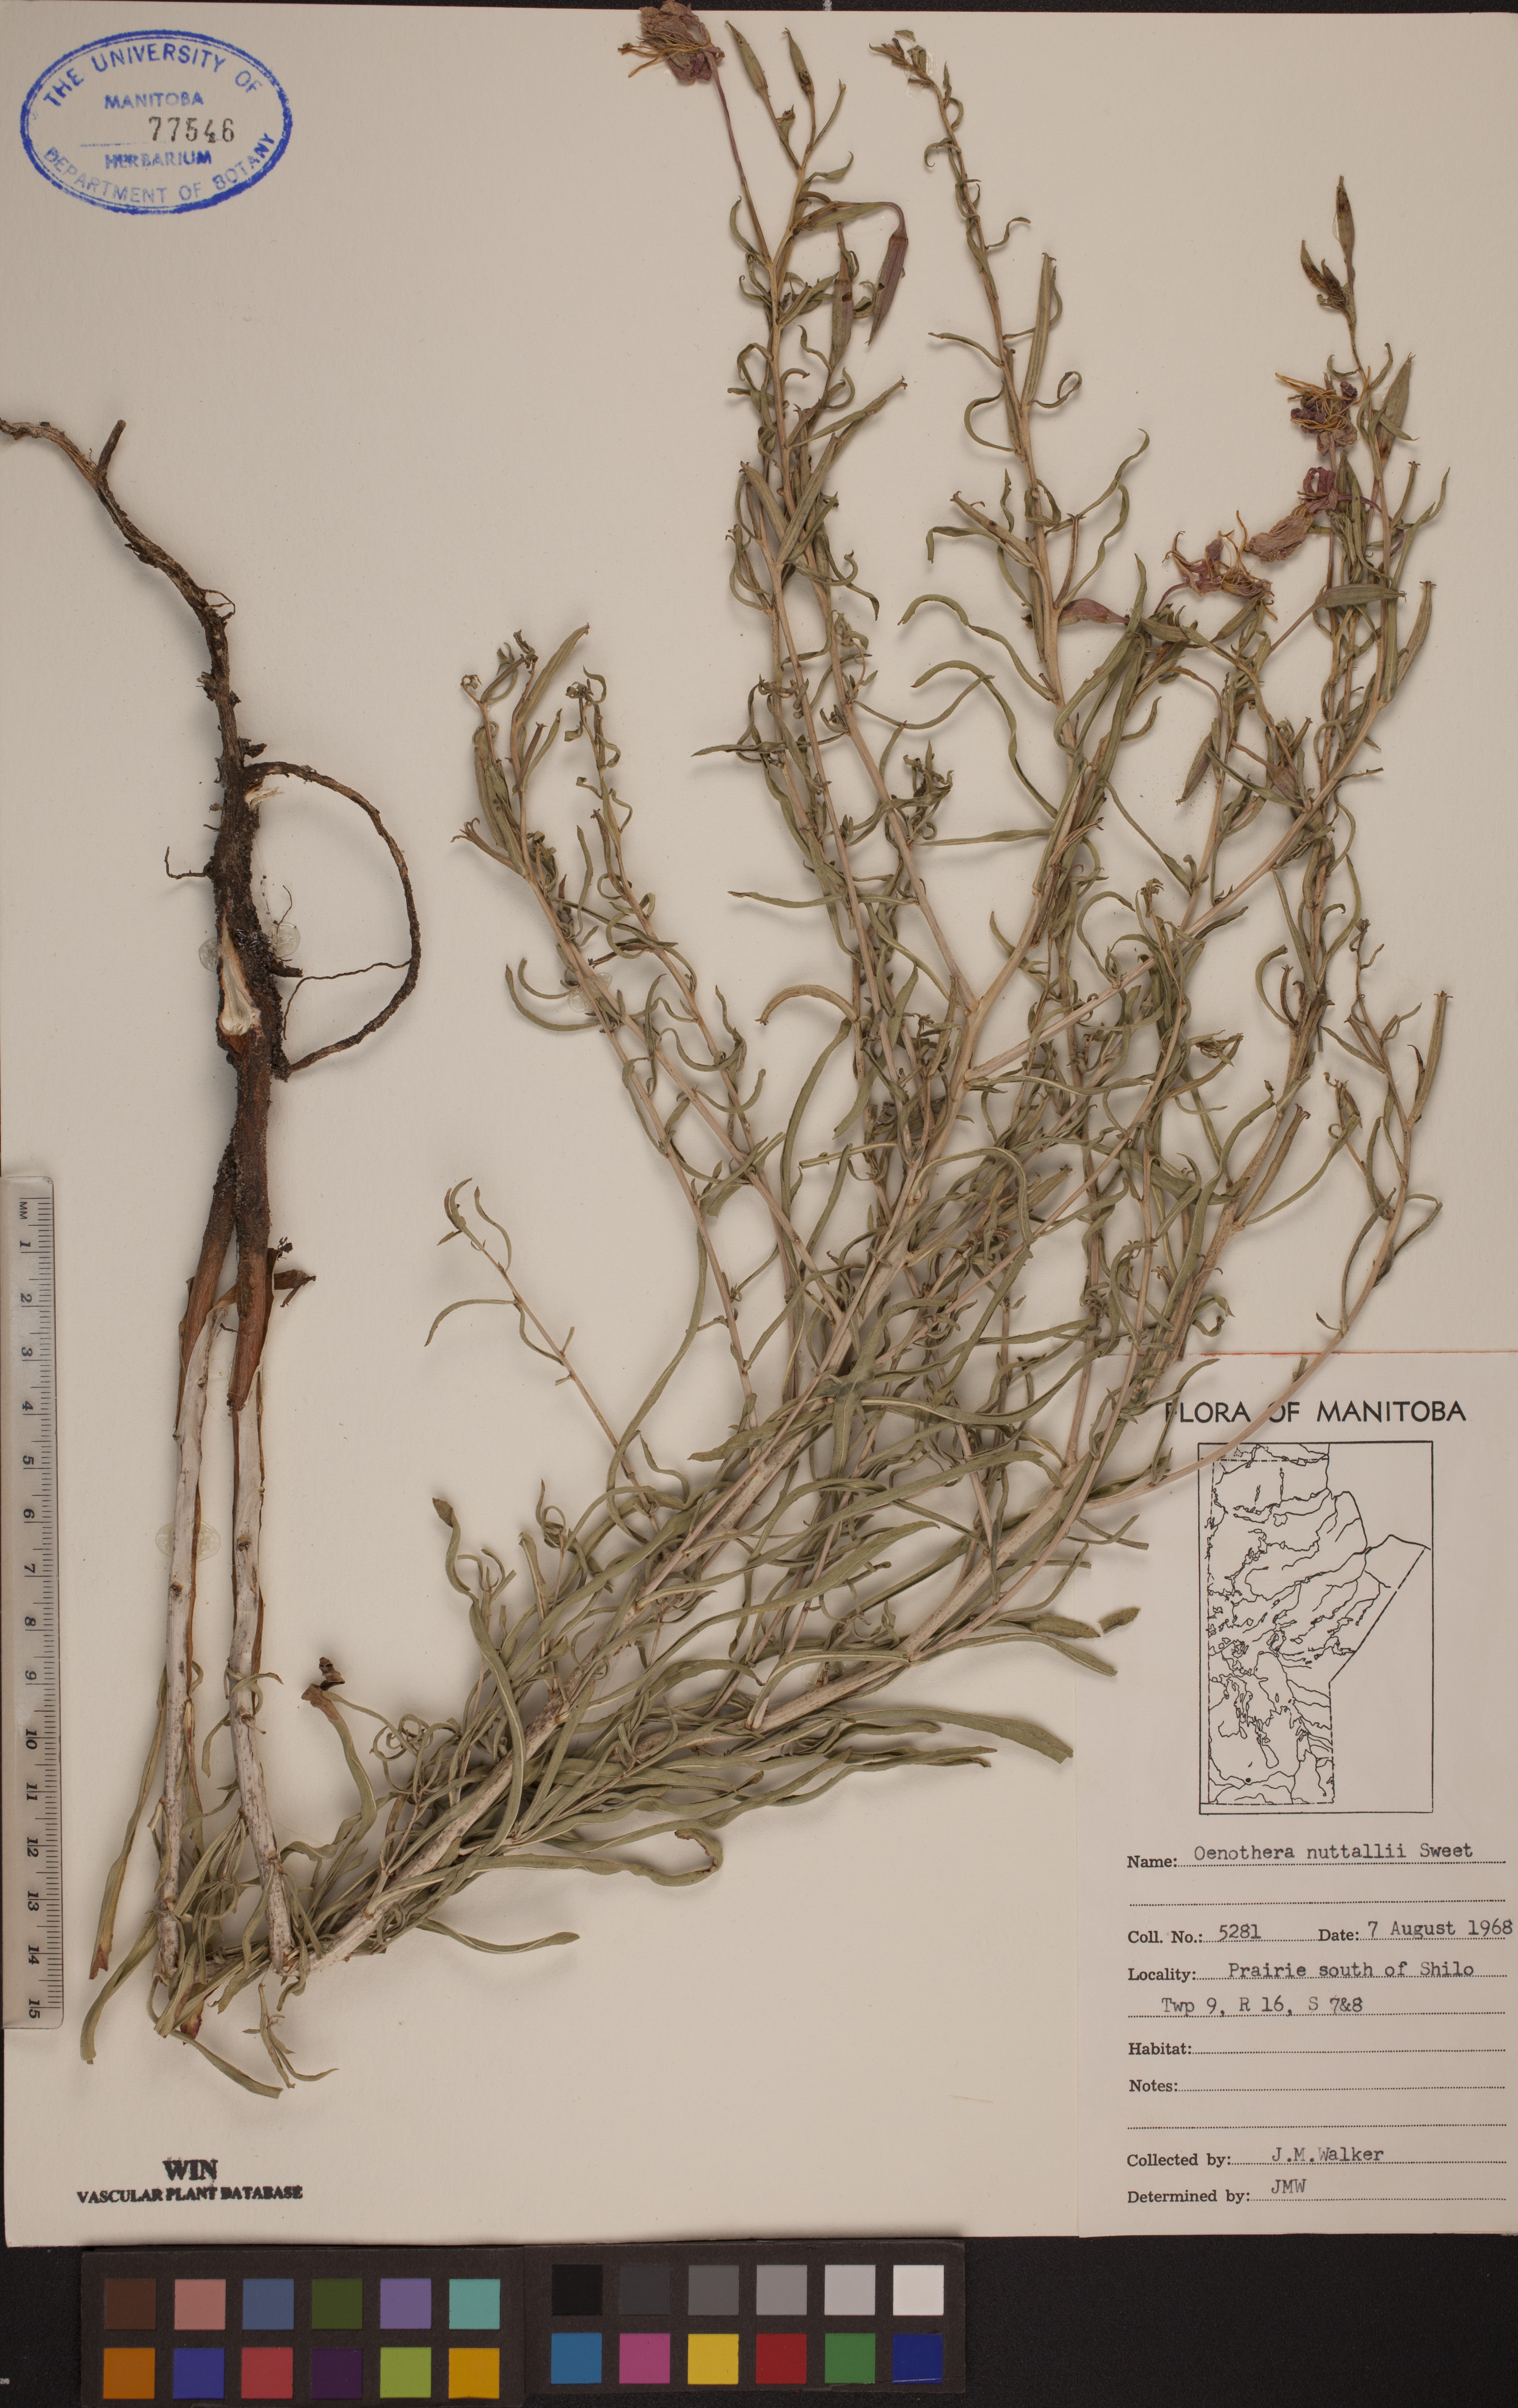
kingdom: Plantae
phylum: Tracheophyta
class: Magnoliopsida
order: Myrtales
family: Onagraceae
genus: Oenothera
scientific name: Oenothera albicaulis
